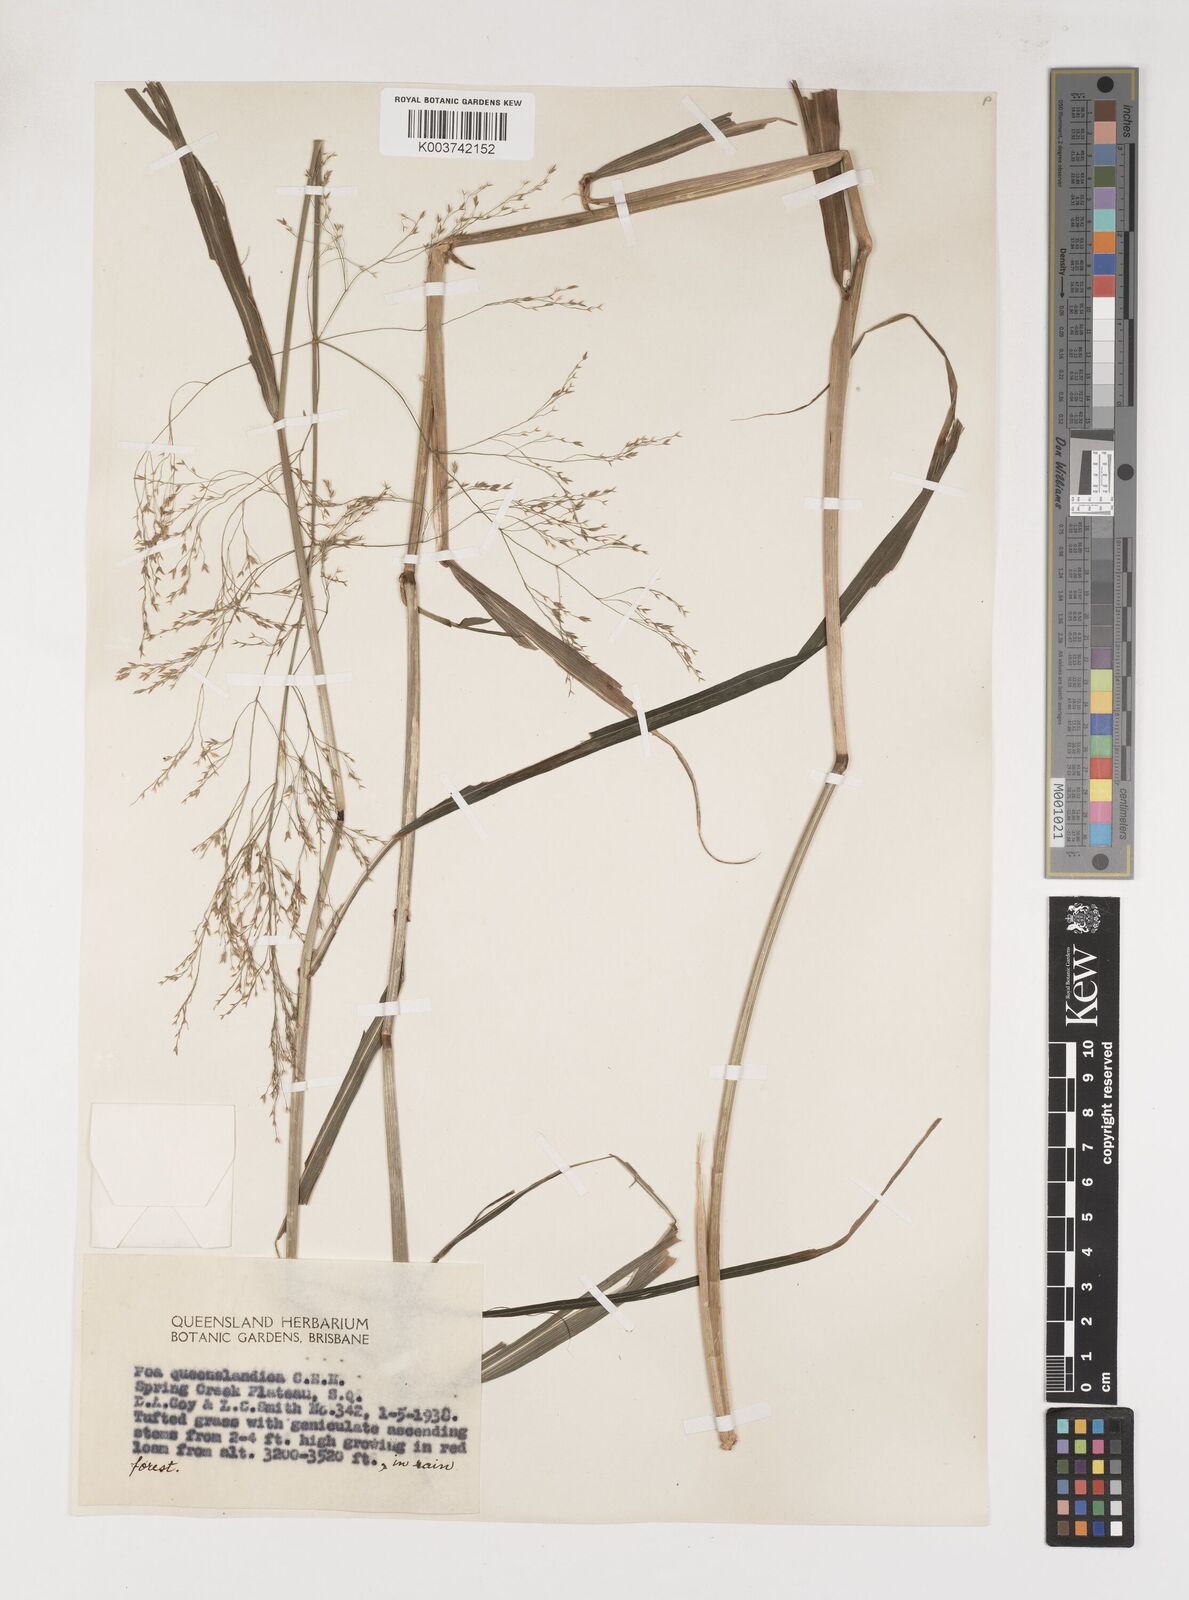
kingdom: Plantae
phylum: Tracheophyta
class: Liliopsida
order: Poales
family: Poaceae
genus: Sylvipoa
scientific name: Sylvipoa queenslandica
